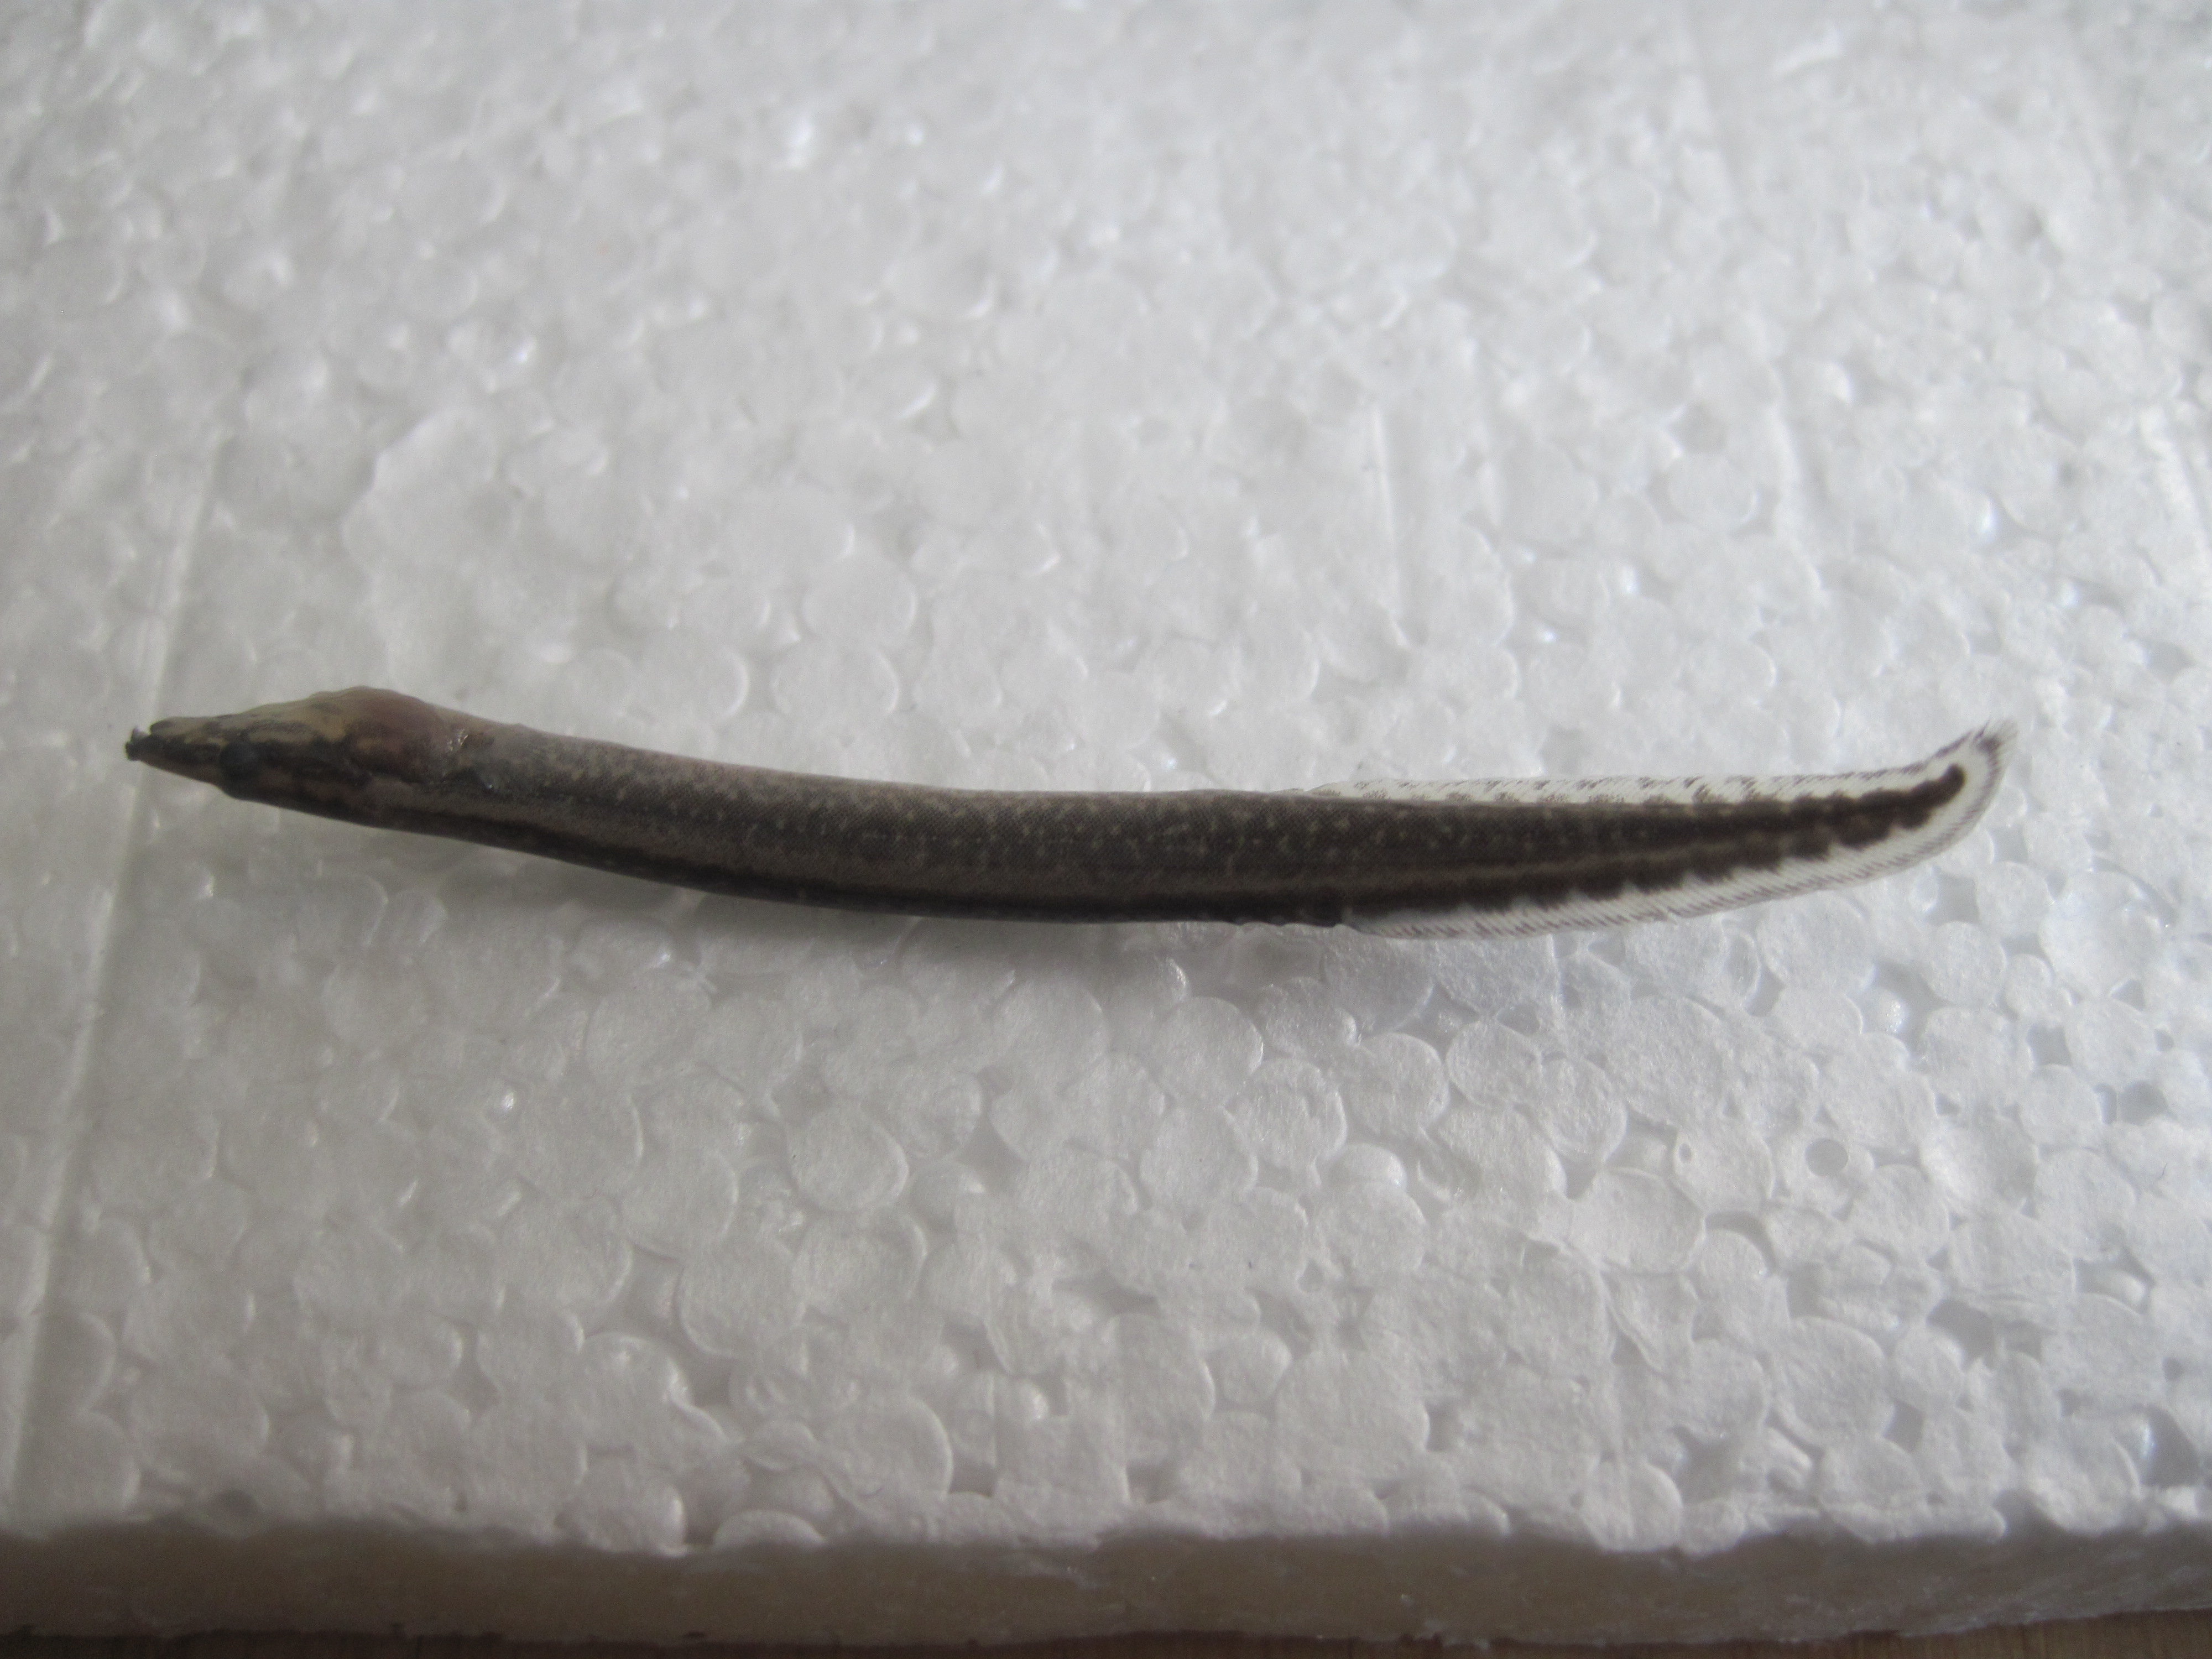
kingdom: Animalia
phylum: Chordata
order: Synbranchiformes
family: Mastacembelidae
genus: Mastacembelus
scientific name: Mastacembelus frenatus
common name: East african spiny eel
